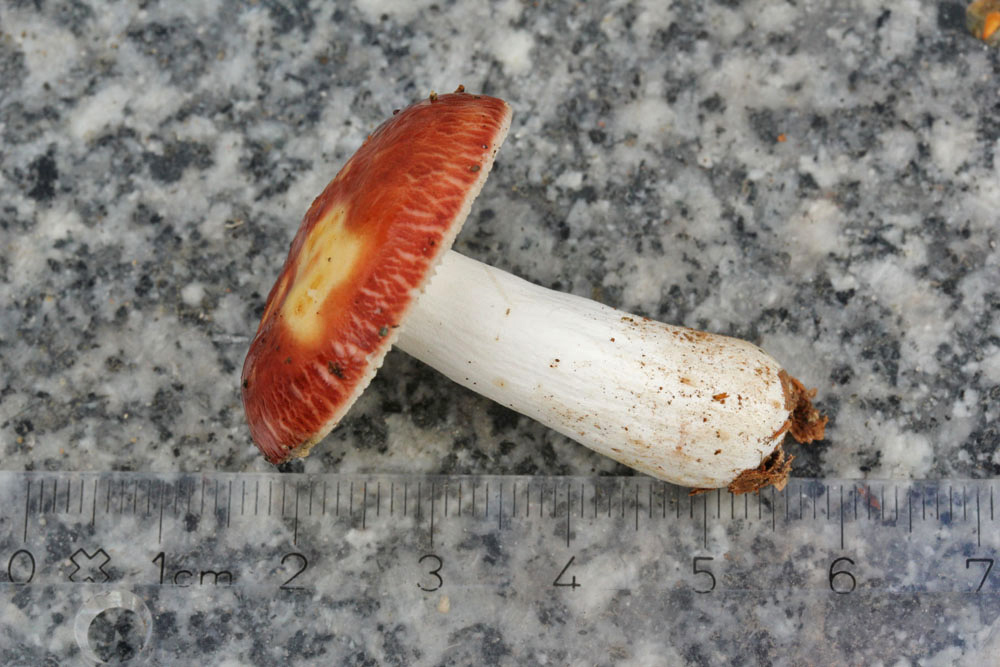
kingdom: Fungi
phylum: Basidiomycota
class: Agaricomycetes
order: Russulales
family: Russulaceae
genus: Russula
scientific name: Russula velenovskyi
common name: orangerød skørhat
